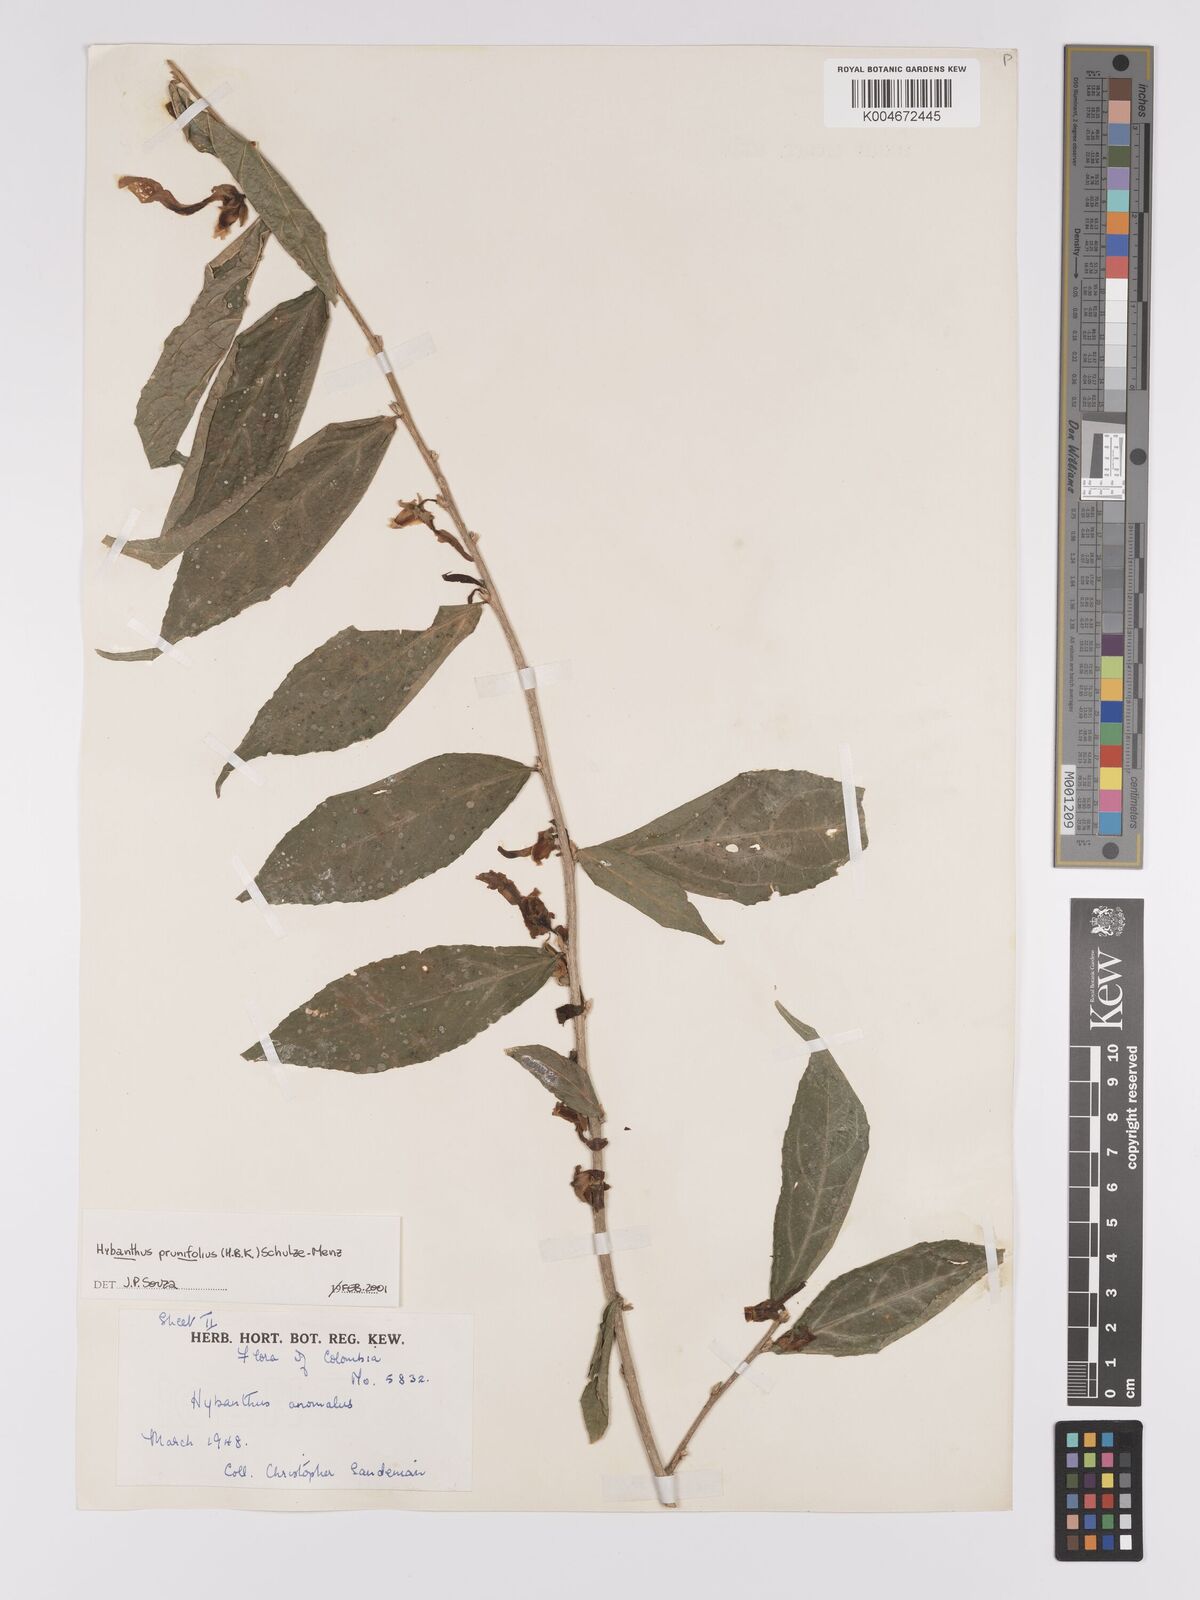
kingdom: Plantae
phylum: Tracheophyta
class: Magnoliopsida
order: Malpighiales
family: Violaceae
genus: Pombalia
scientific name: Pombalia prunifolia
